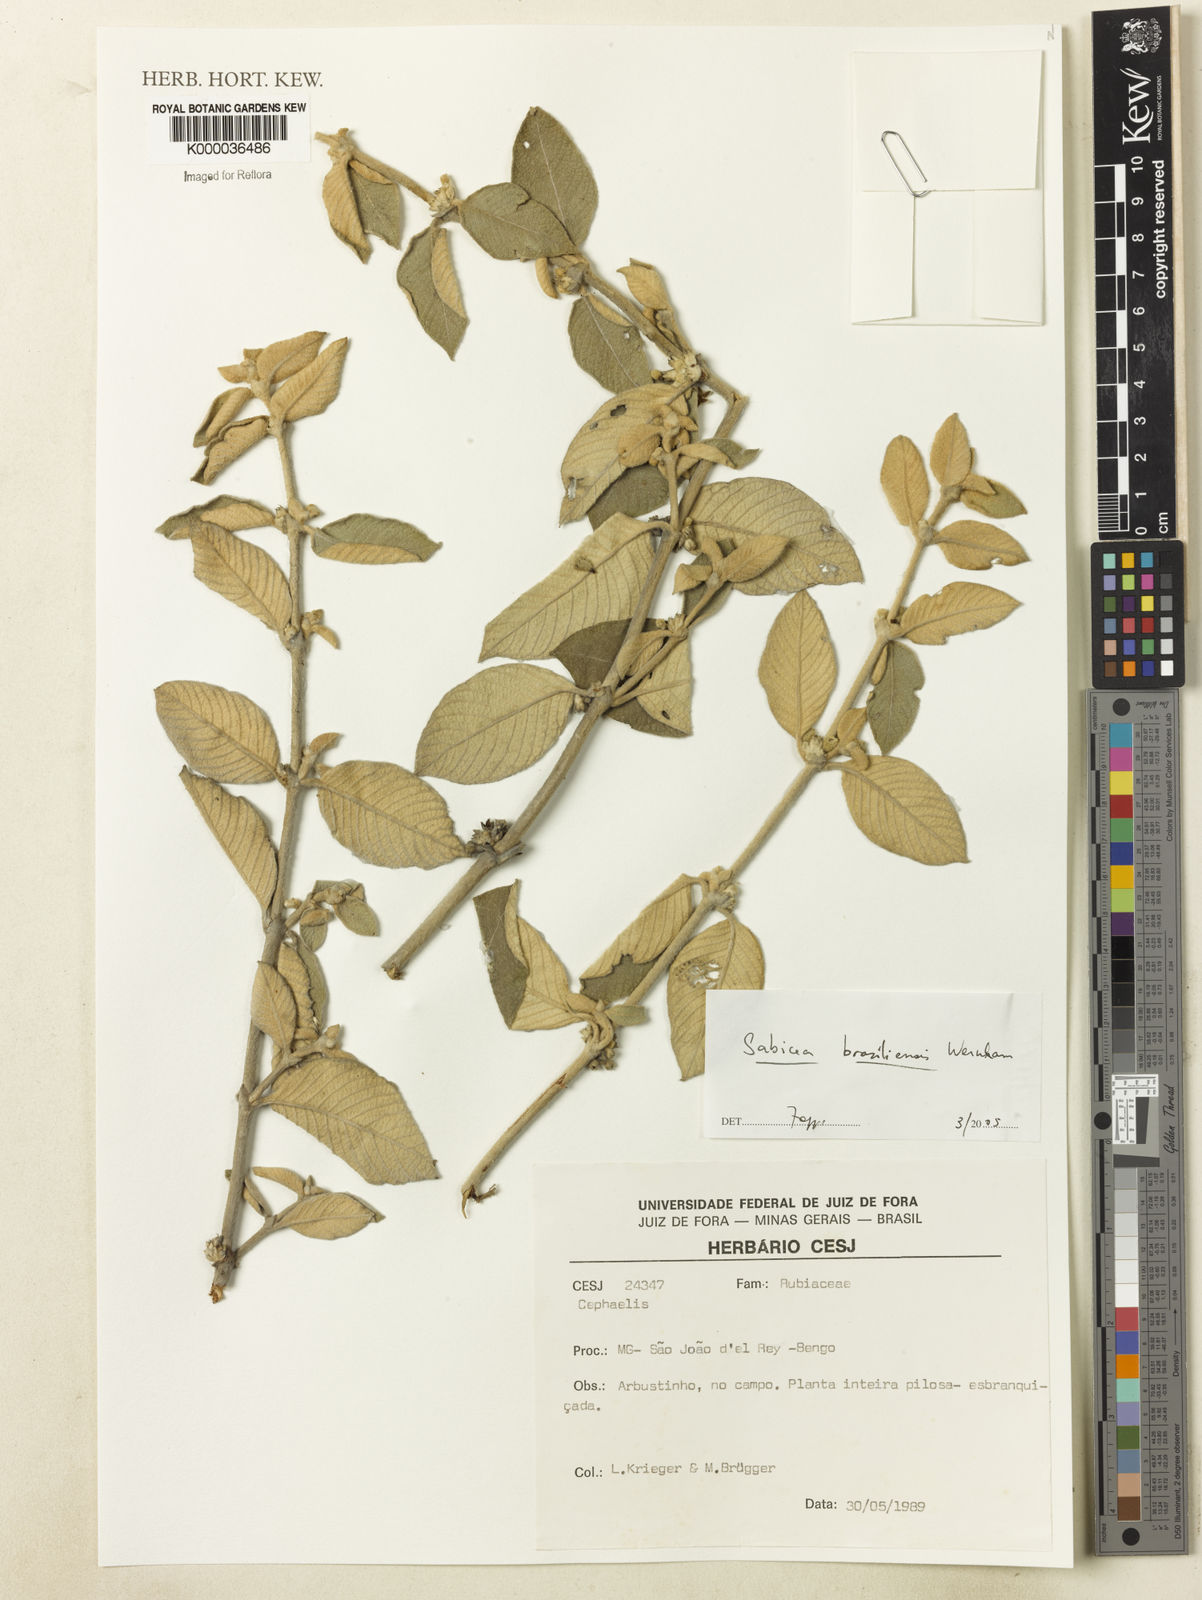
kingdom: Plantae
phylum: Tracheophyta
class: Magnoliopsida
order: Gentianales
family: Rubiaceae
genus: Sabicea
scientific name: Sabicea brasiliensis
